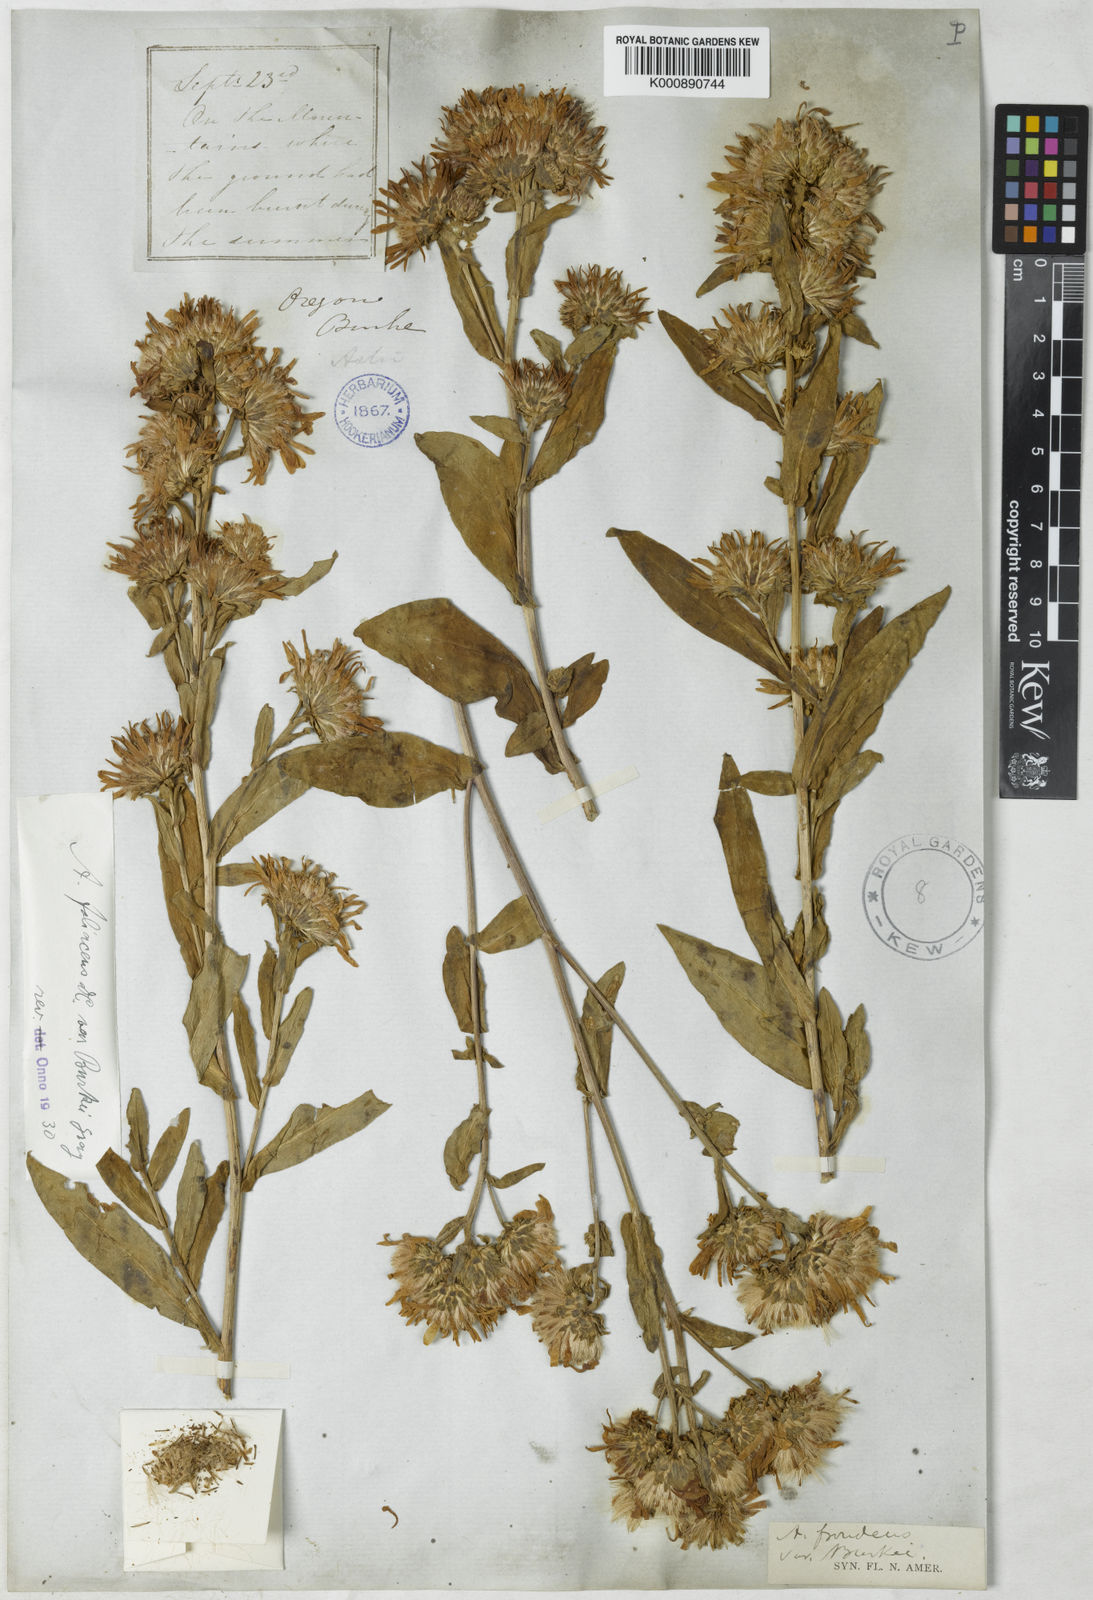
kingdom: Plantae
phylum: Tracheophyta
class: Magnoliopsida
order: Asterales
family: Asteraceae
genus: Symphyotrichum
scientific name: Symphyotrichum foliaceum
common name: Leafy aster
